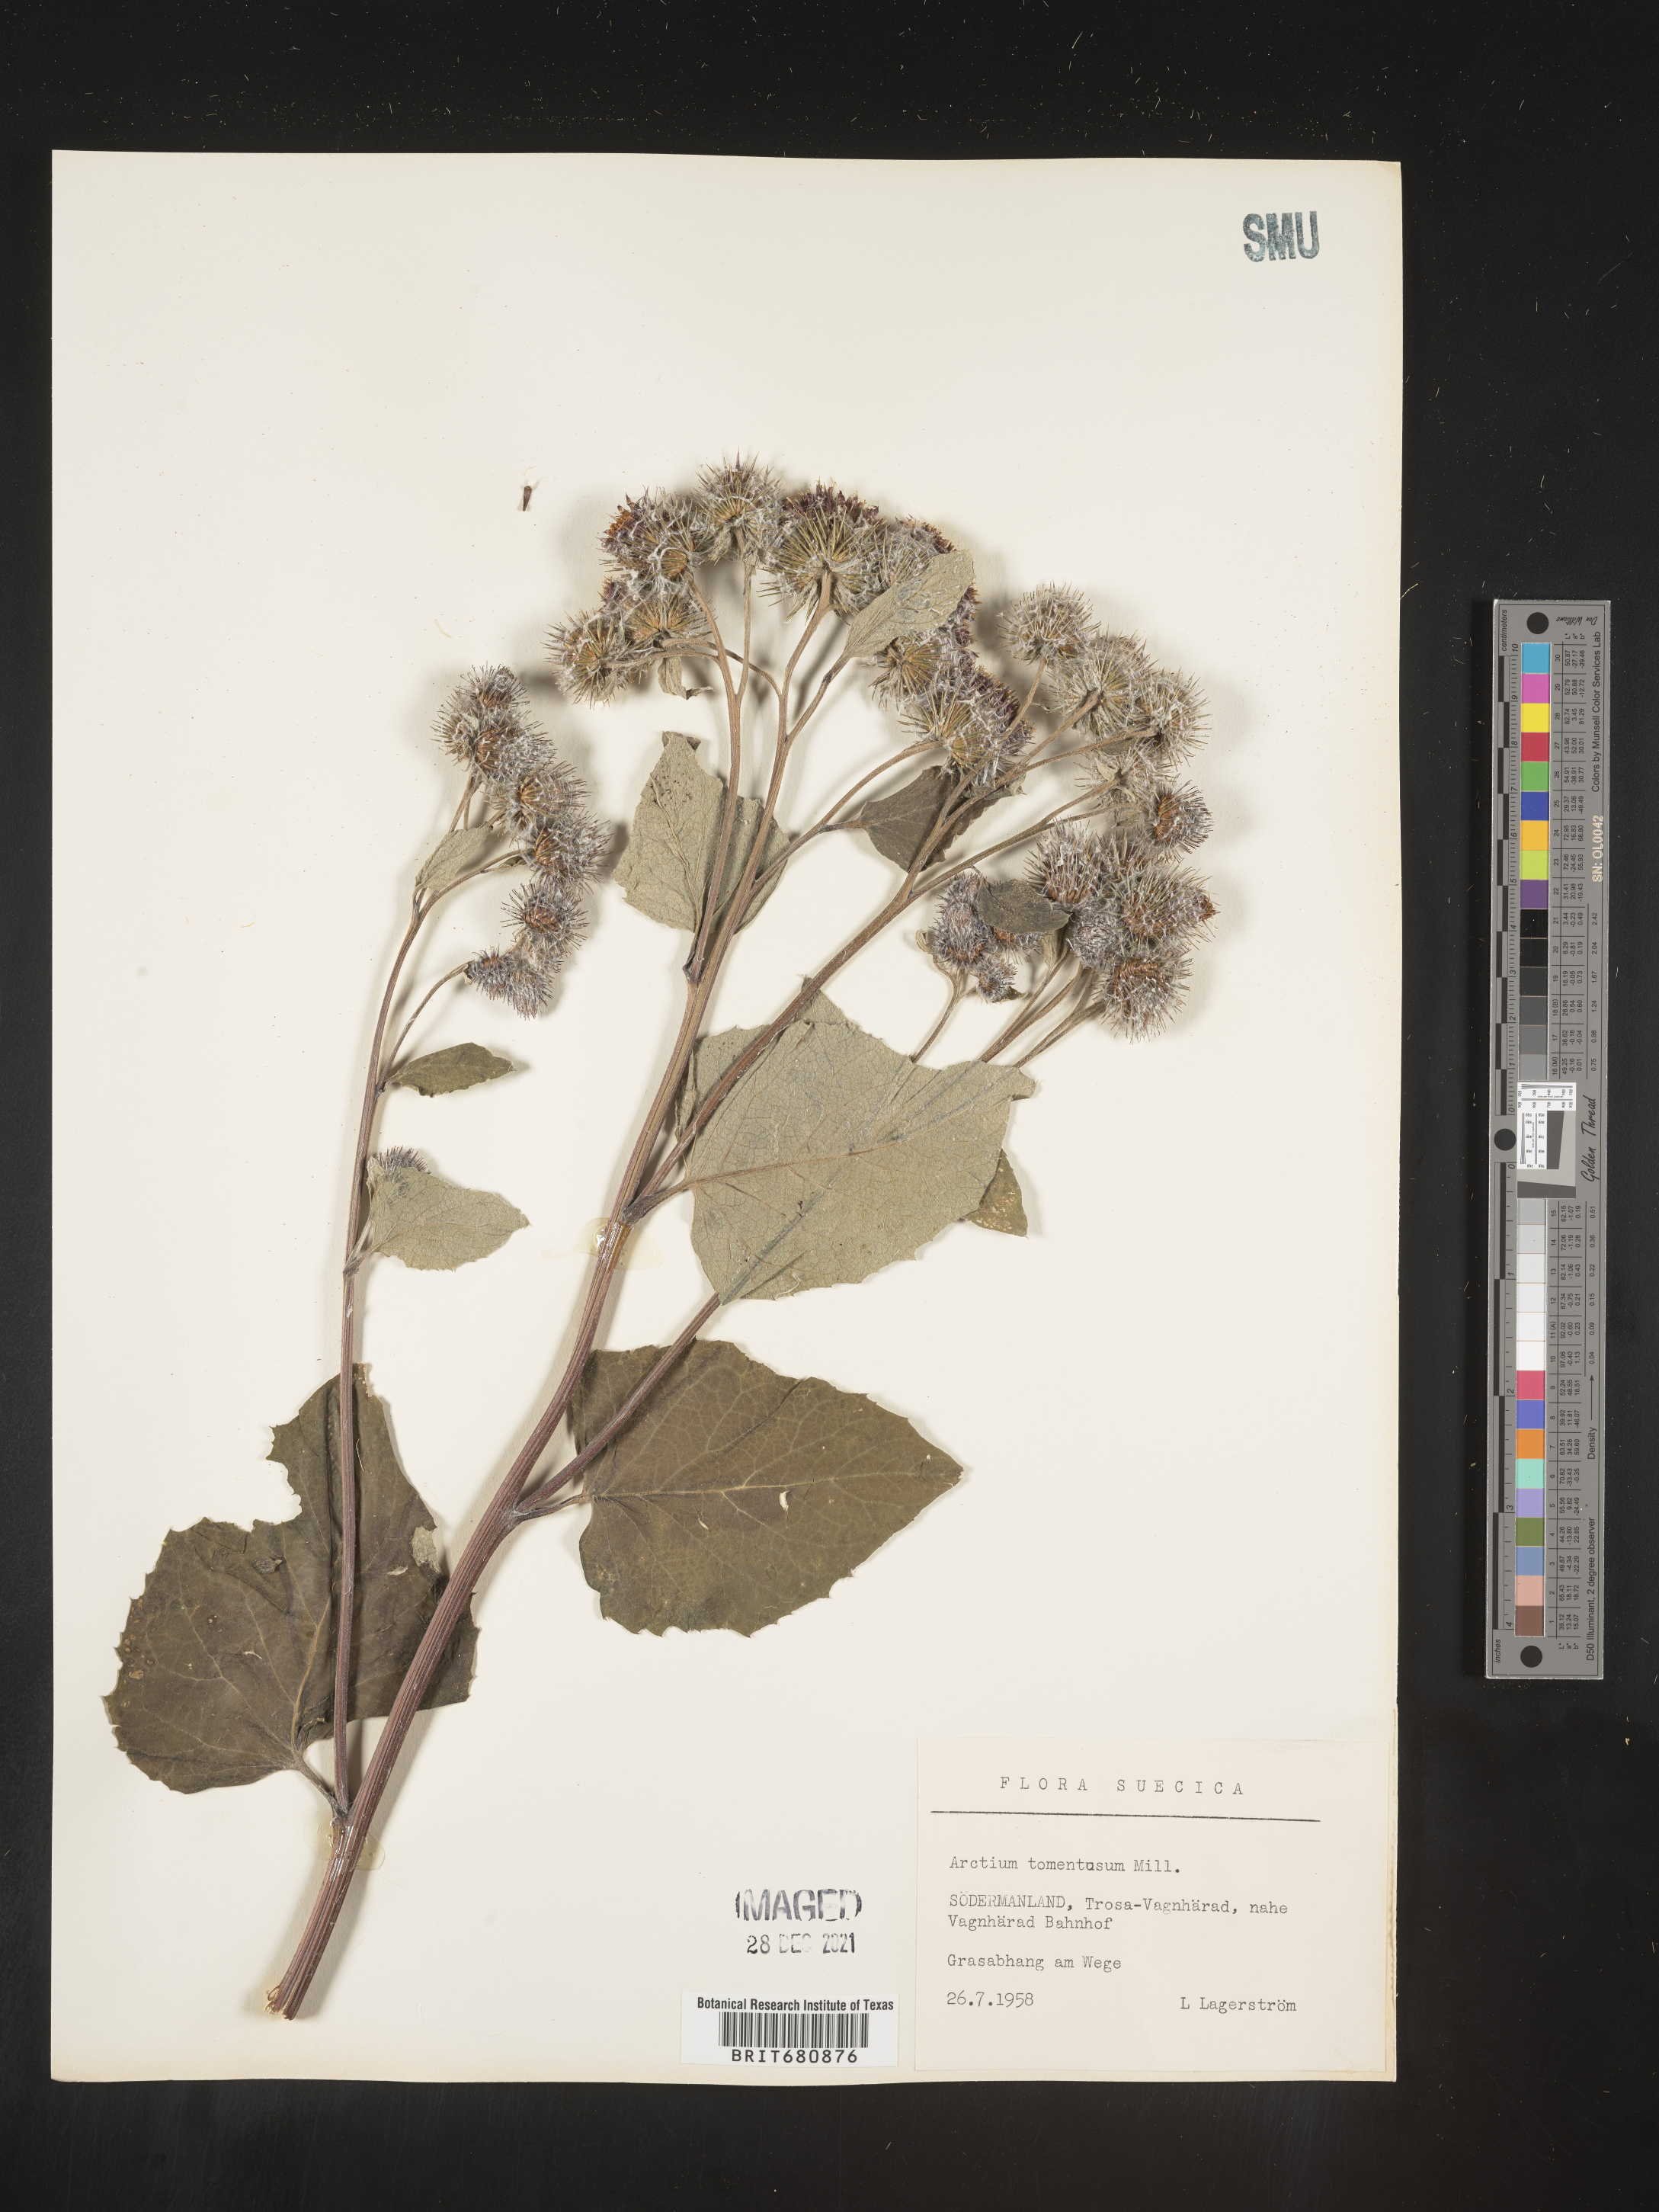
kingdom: Plantae
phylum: Tracheophyta
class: Magnoliopsida
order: Asterales
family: Asteraceae
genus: Arctium
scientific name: Arctium tomentosum
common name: Woolly burdock
